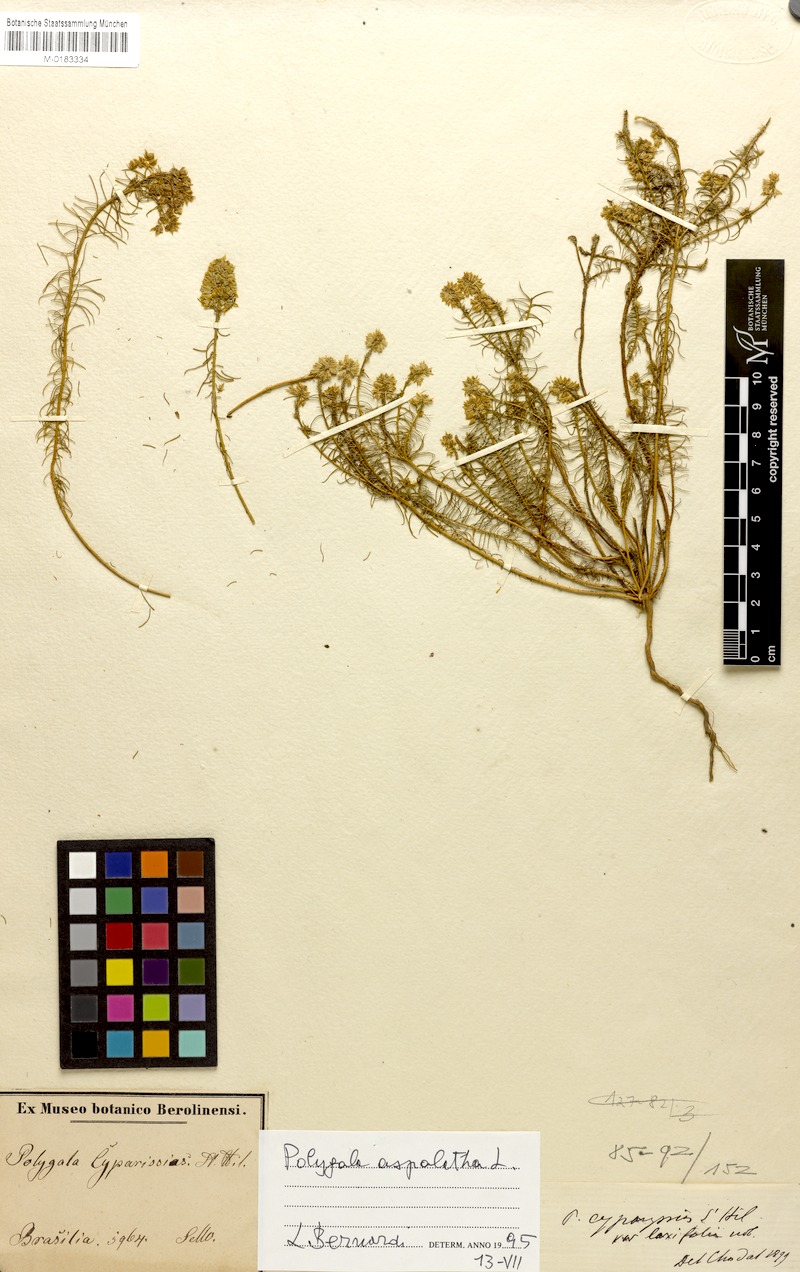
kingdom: Plantae
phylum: Tracheophyta
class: Magnoliopsida
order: Fabales
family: Polygalaceae
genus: Polygala
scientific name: Polygala aspalatha
